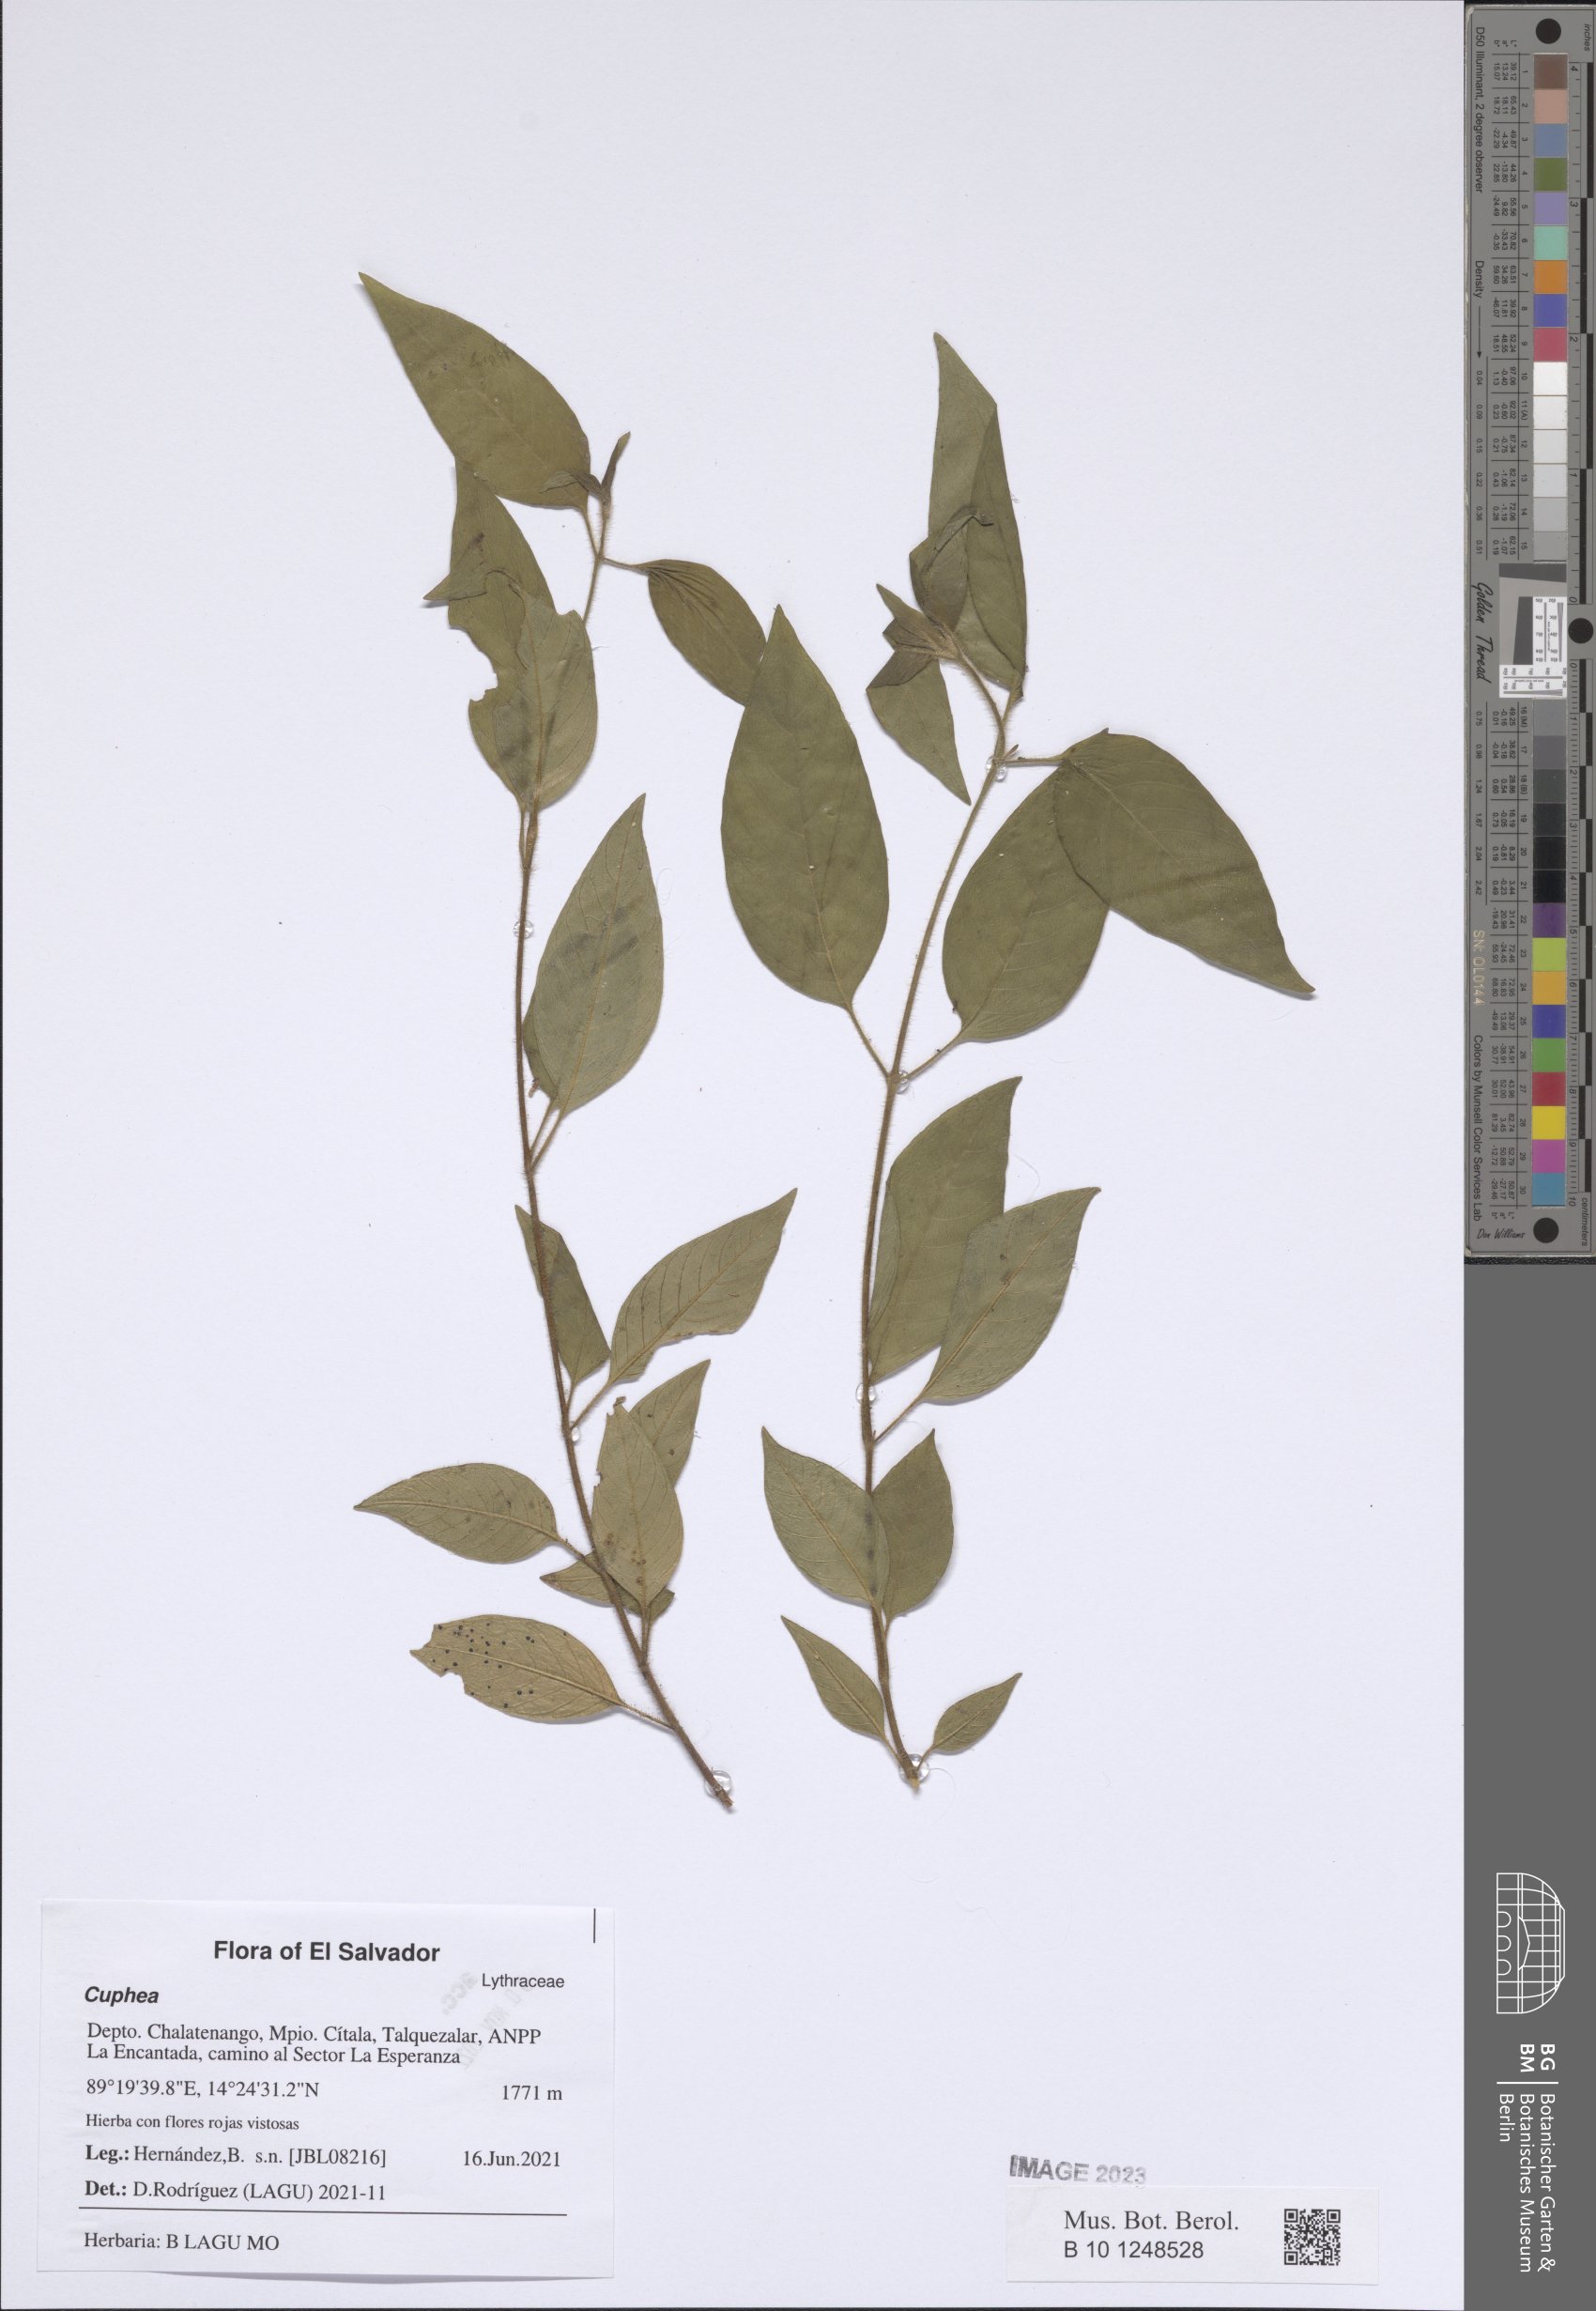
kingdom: Plantae
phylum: Tracheophyta
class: Magnoliopsida
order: Myrtales
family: Lythraceae
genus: Cuphea
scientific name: Cuphea
